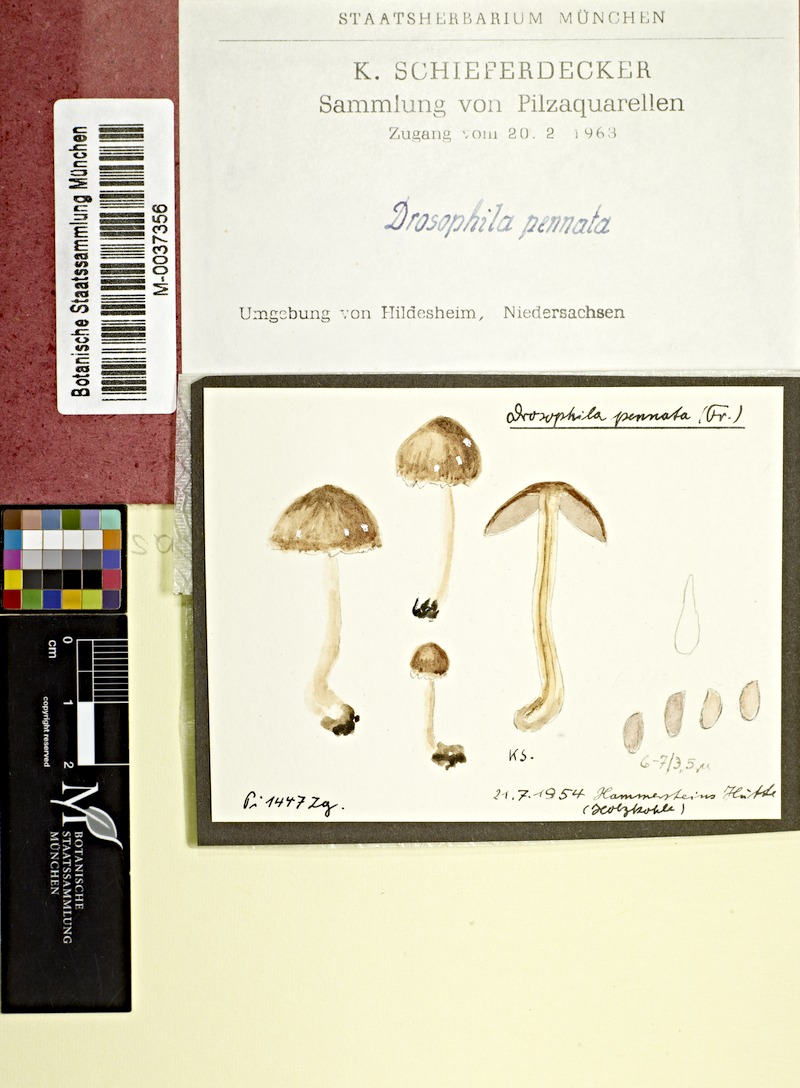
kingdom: Fungi
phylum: Basidiomycota
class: Agaricomycetes
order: Agaricales
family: Psathyrellaceae
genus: Psathyrella
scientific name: Psathyrella pennata
